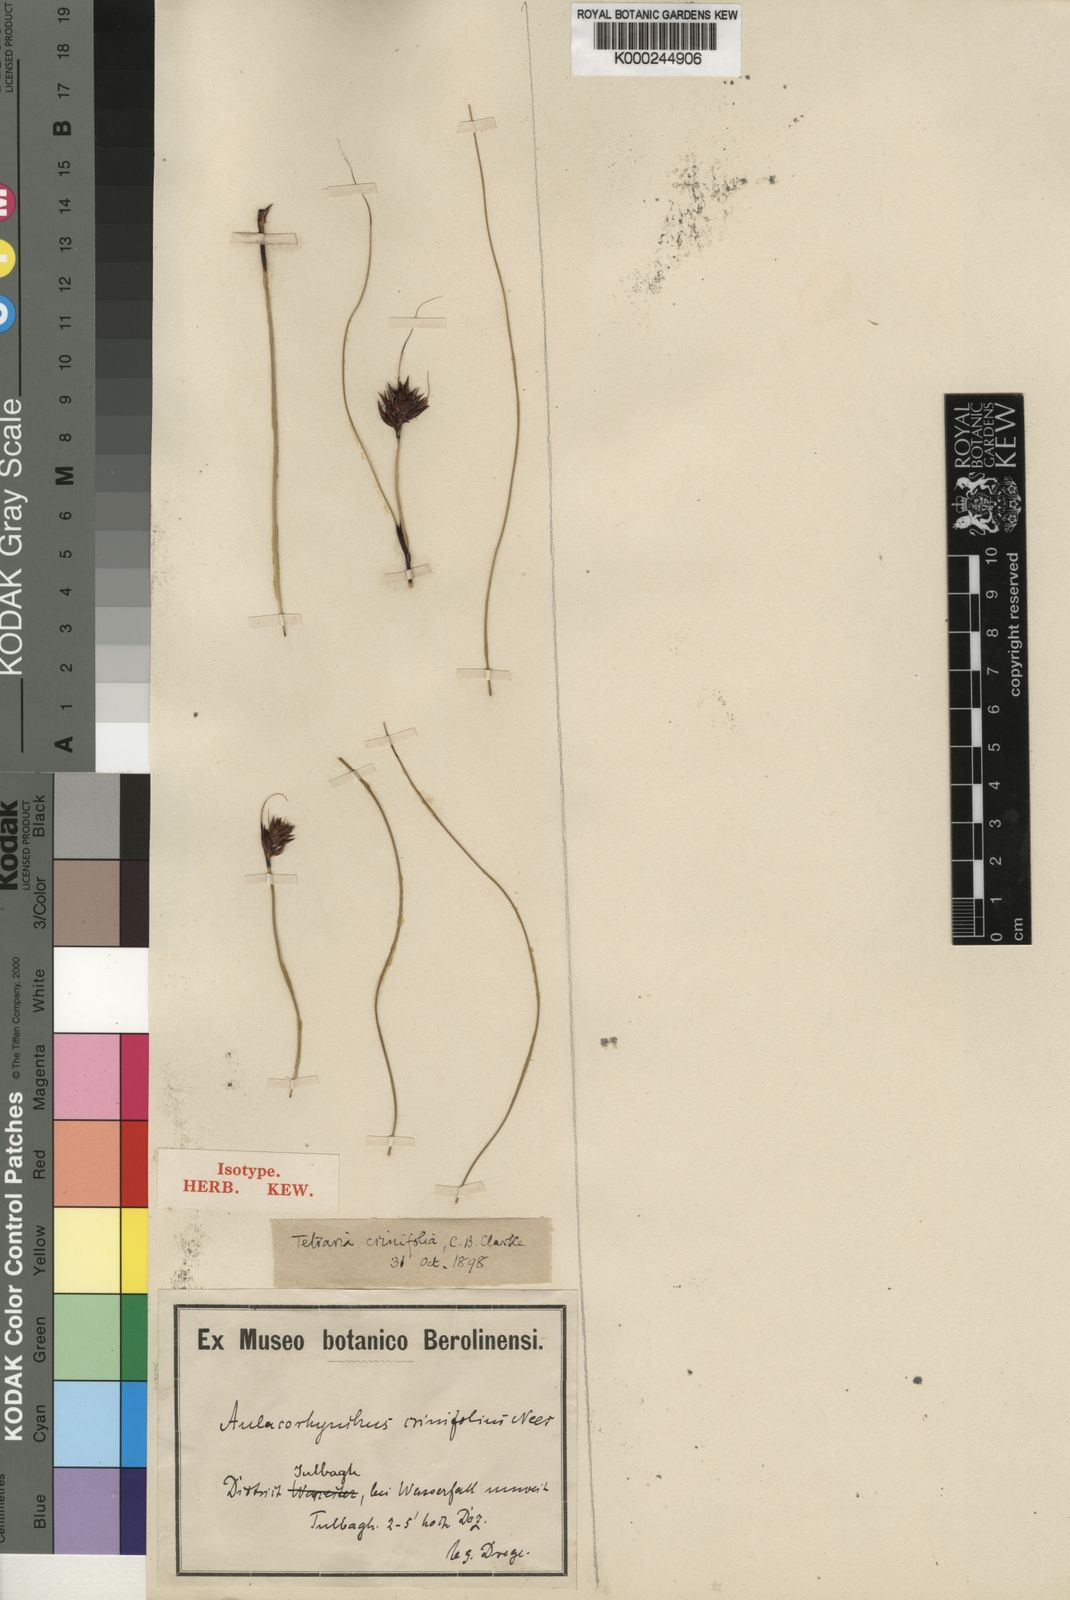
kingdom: Plantae
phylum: Tracheophyta
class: Liliopsida
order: Poales
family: Cyperaceae
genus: Tetraria
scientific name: Tetraria crinifolia
